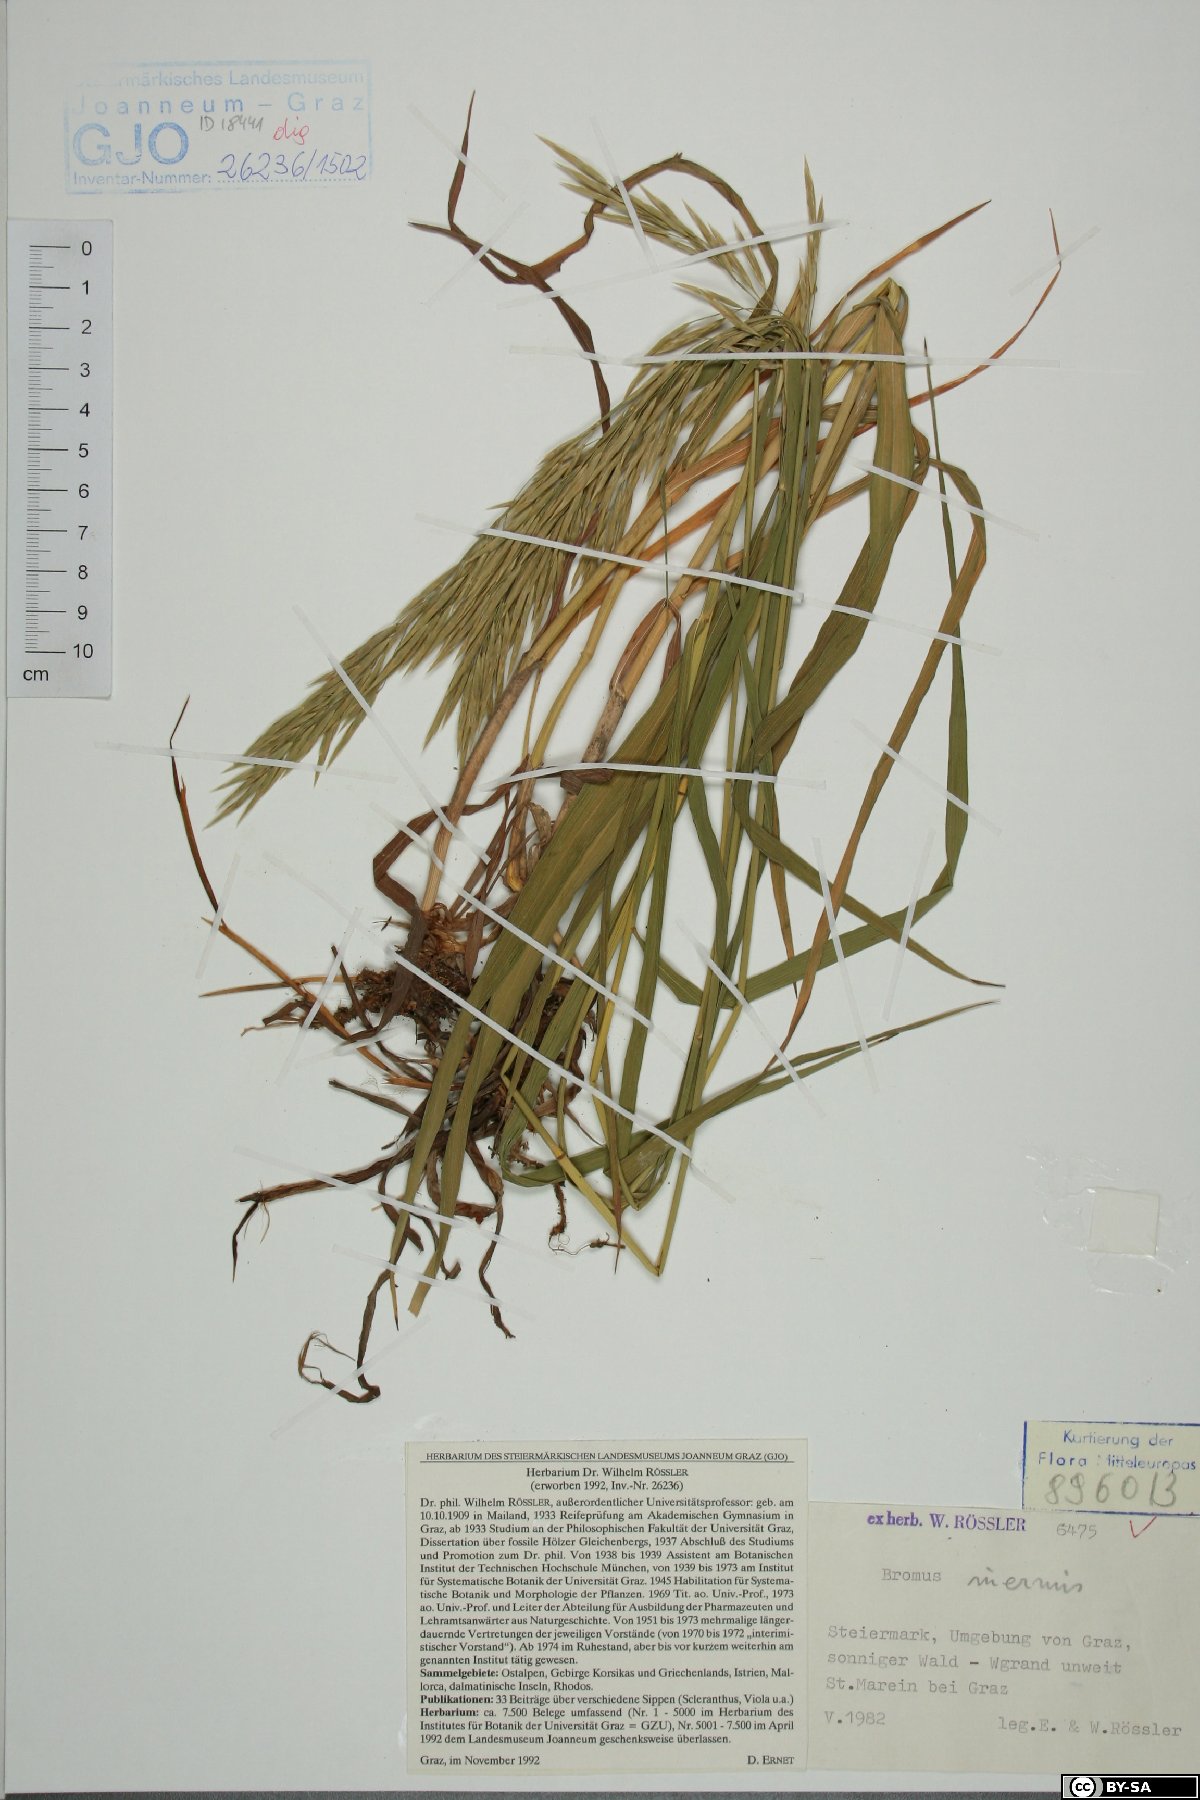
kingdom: Plantae
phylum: Tracheophyta
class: Liliopsida
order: Poales
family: Poaceae
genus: Bromus
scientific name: Bromus inermis
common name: Smooth brome
